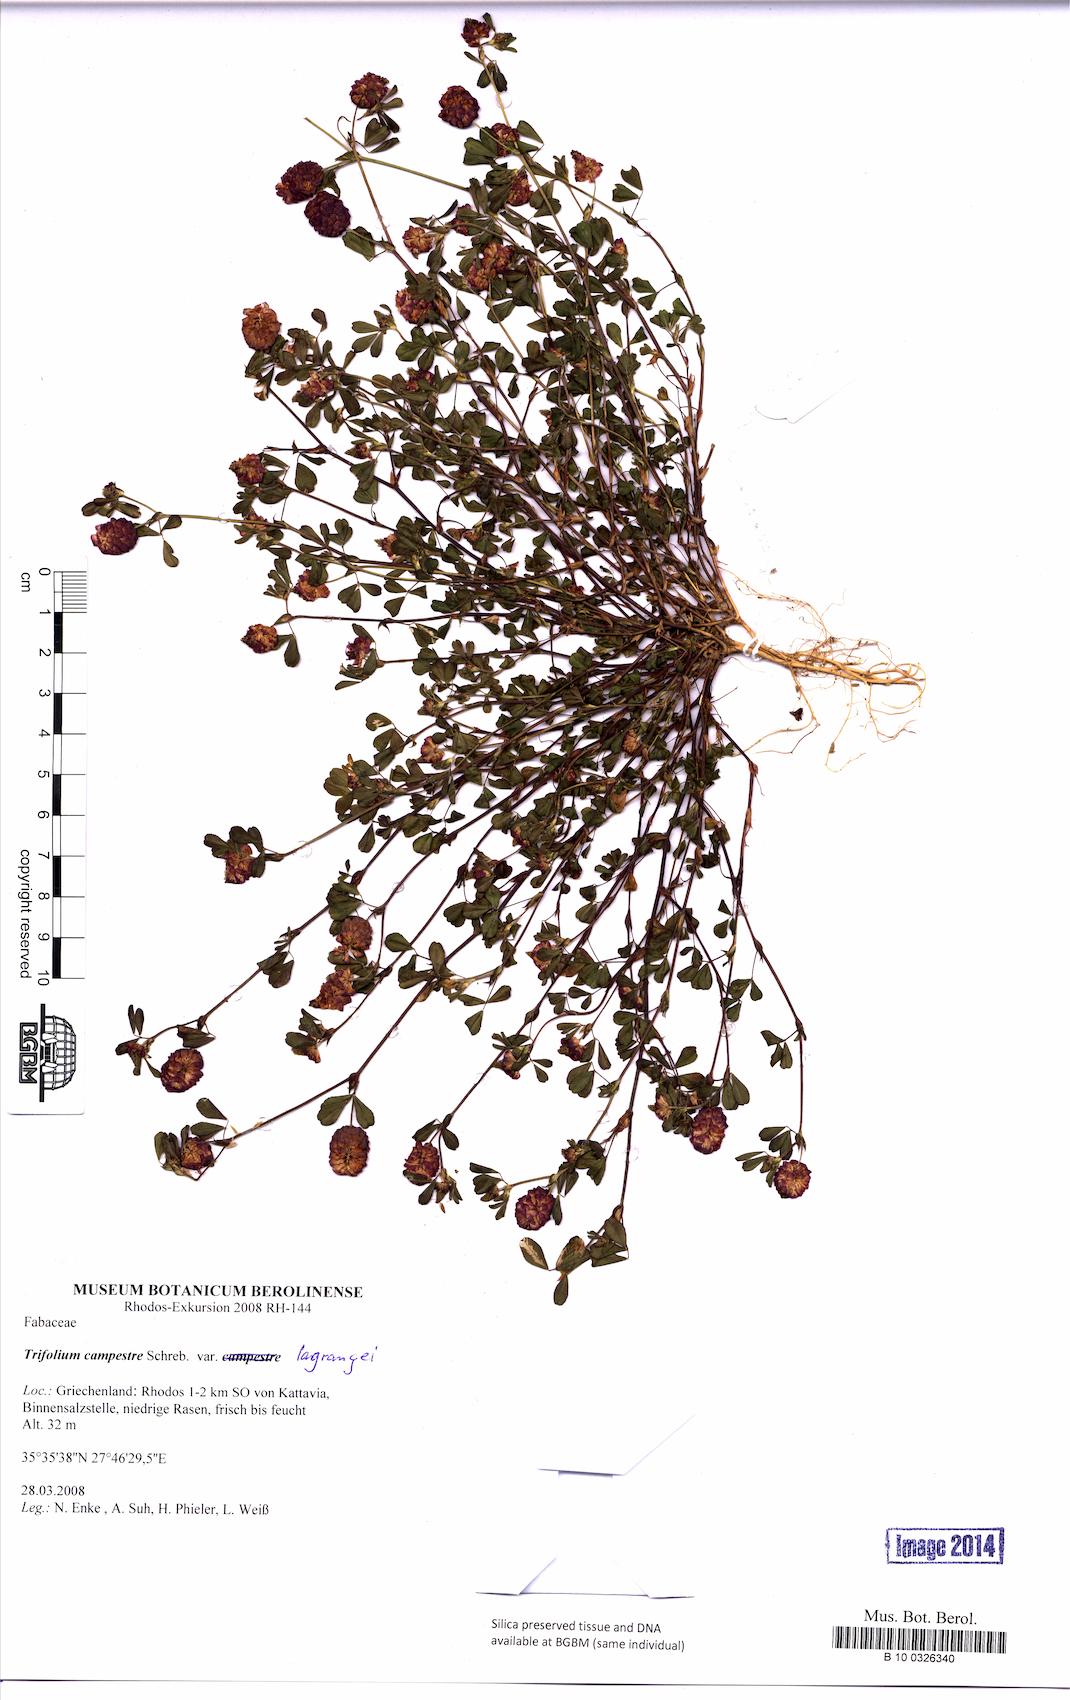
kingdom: Plantae
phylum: Tracheophyta
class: Magnoliopsida
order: Fabales
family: Fabaceae
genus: Trifolium
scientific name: Trifolium campestre
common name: Field clover
